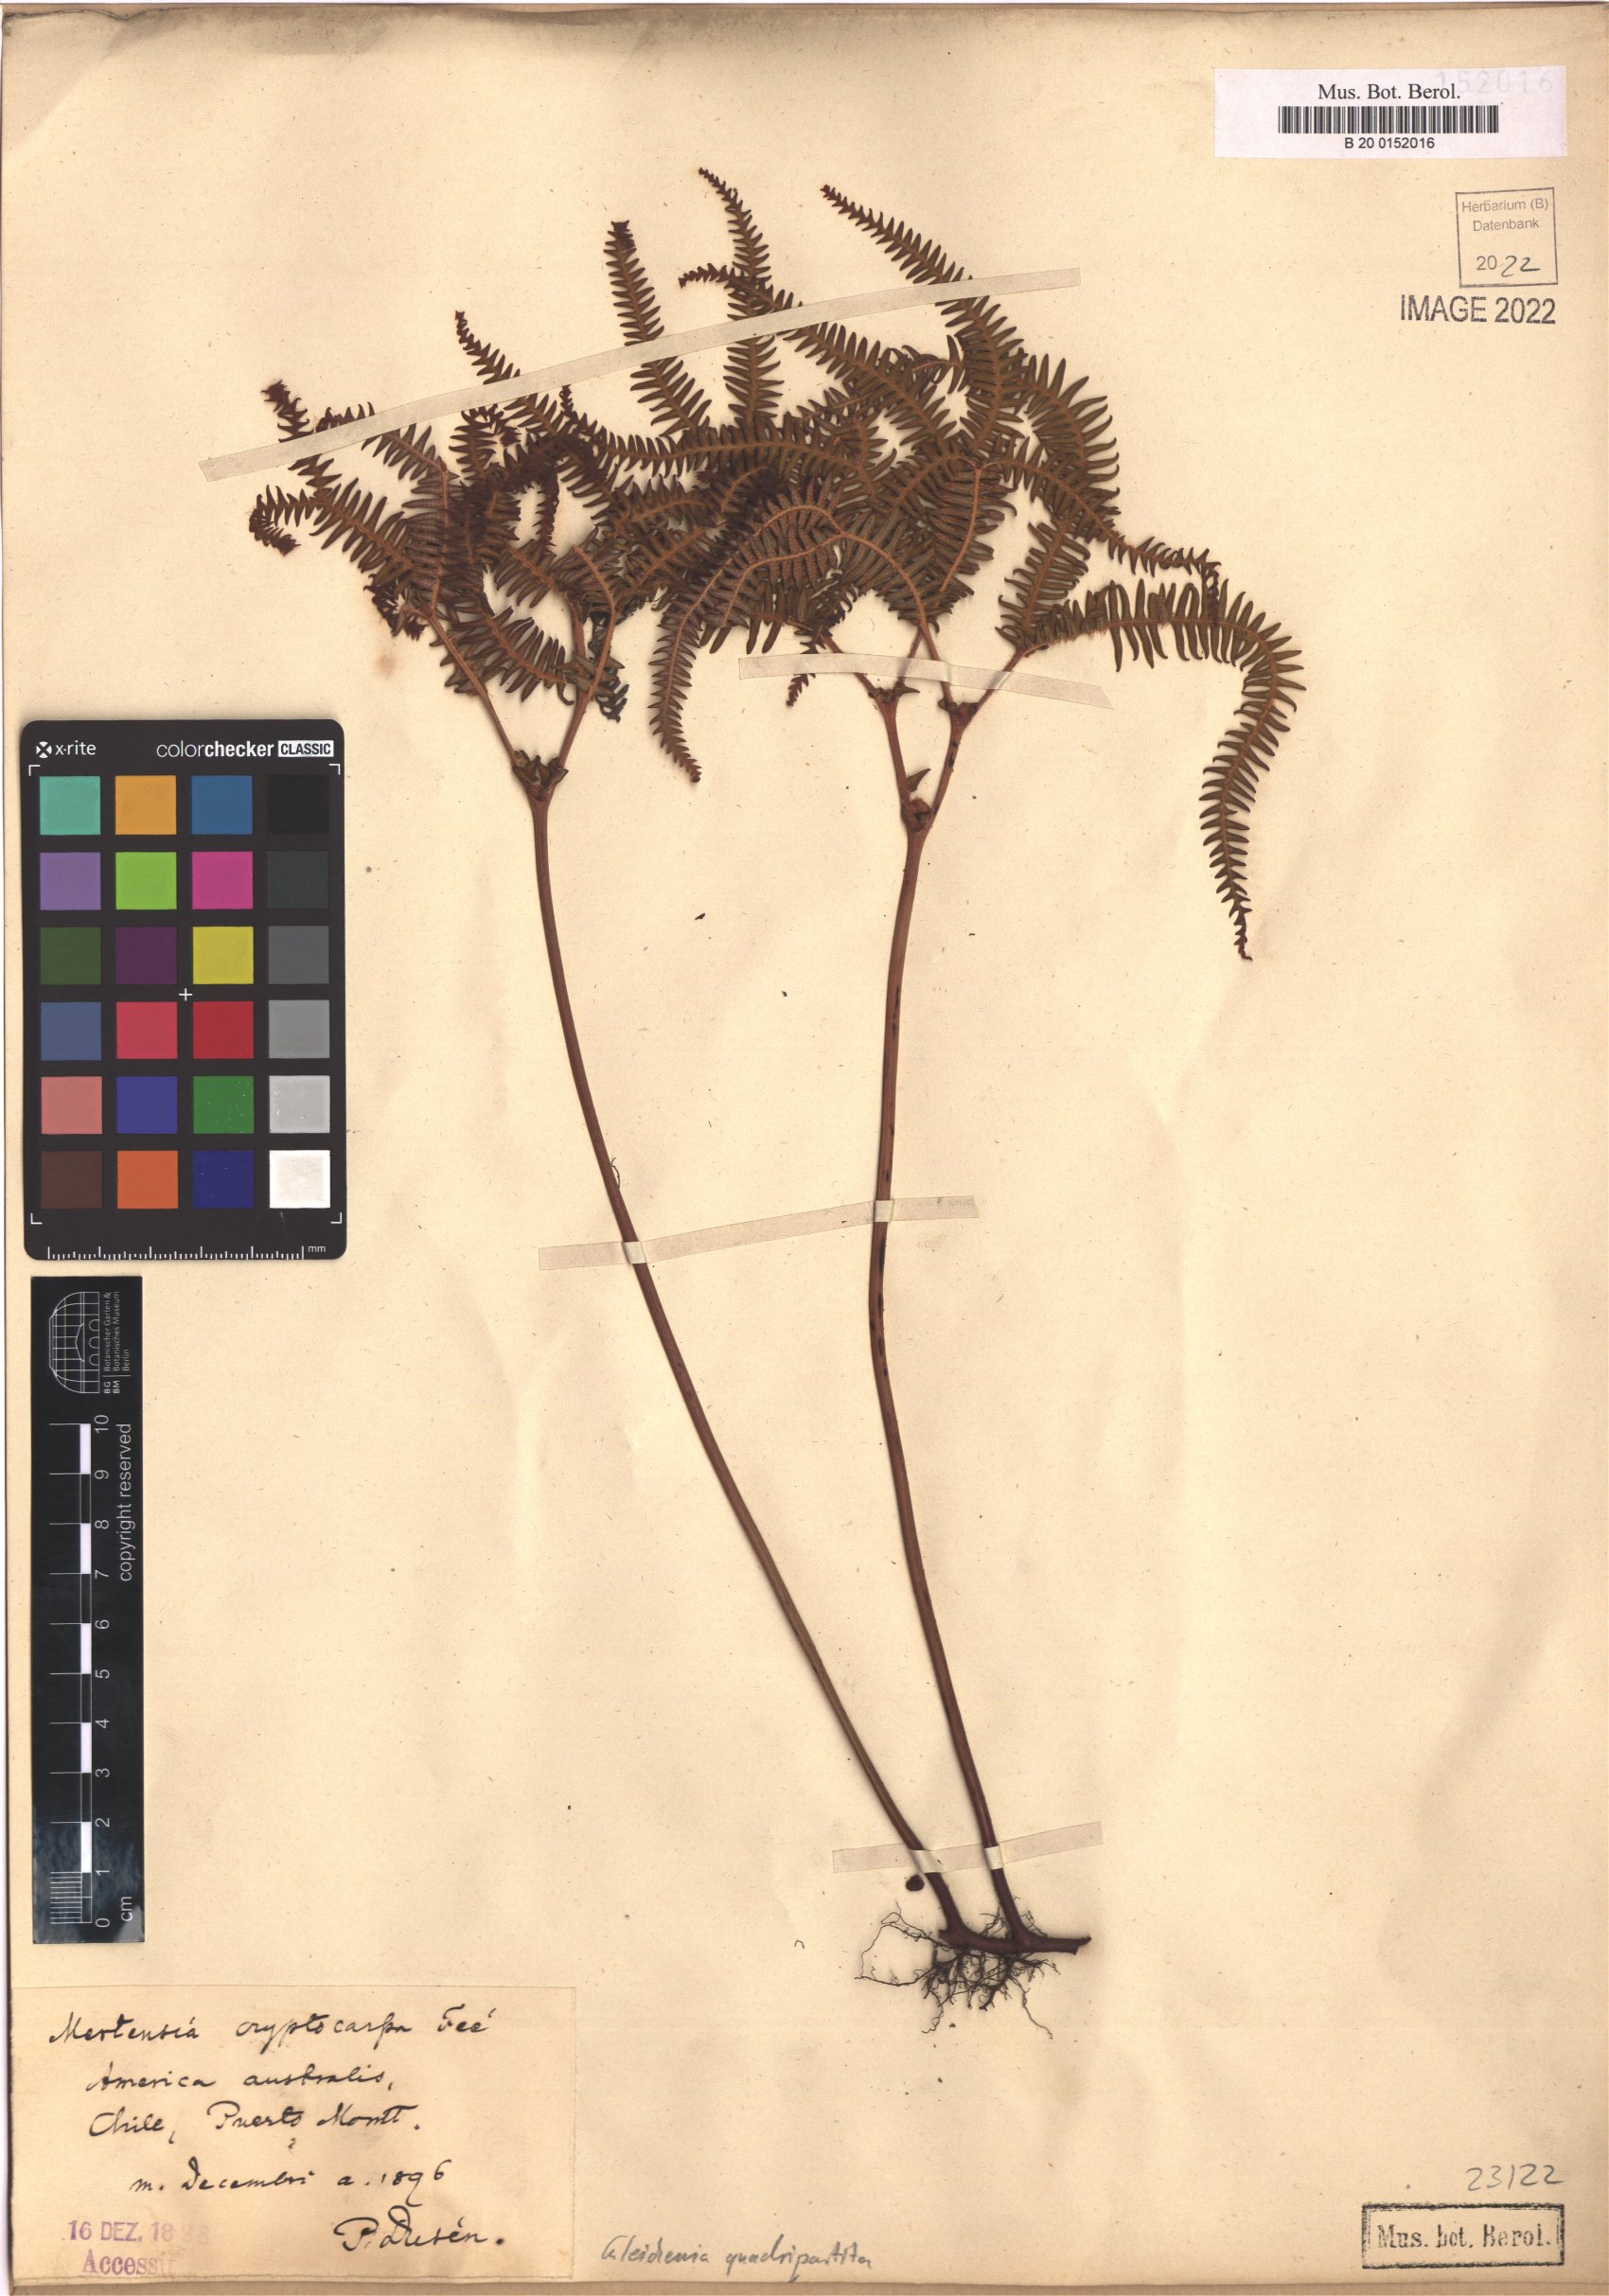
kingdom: Plantae
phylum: Tracheophyta
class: Polypodiopsida
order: Gleicheniales
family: Gleicheniaceae
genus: Sticherus
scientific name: Sticherus quadripartitus
